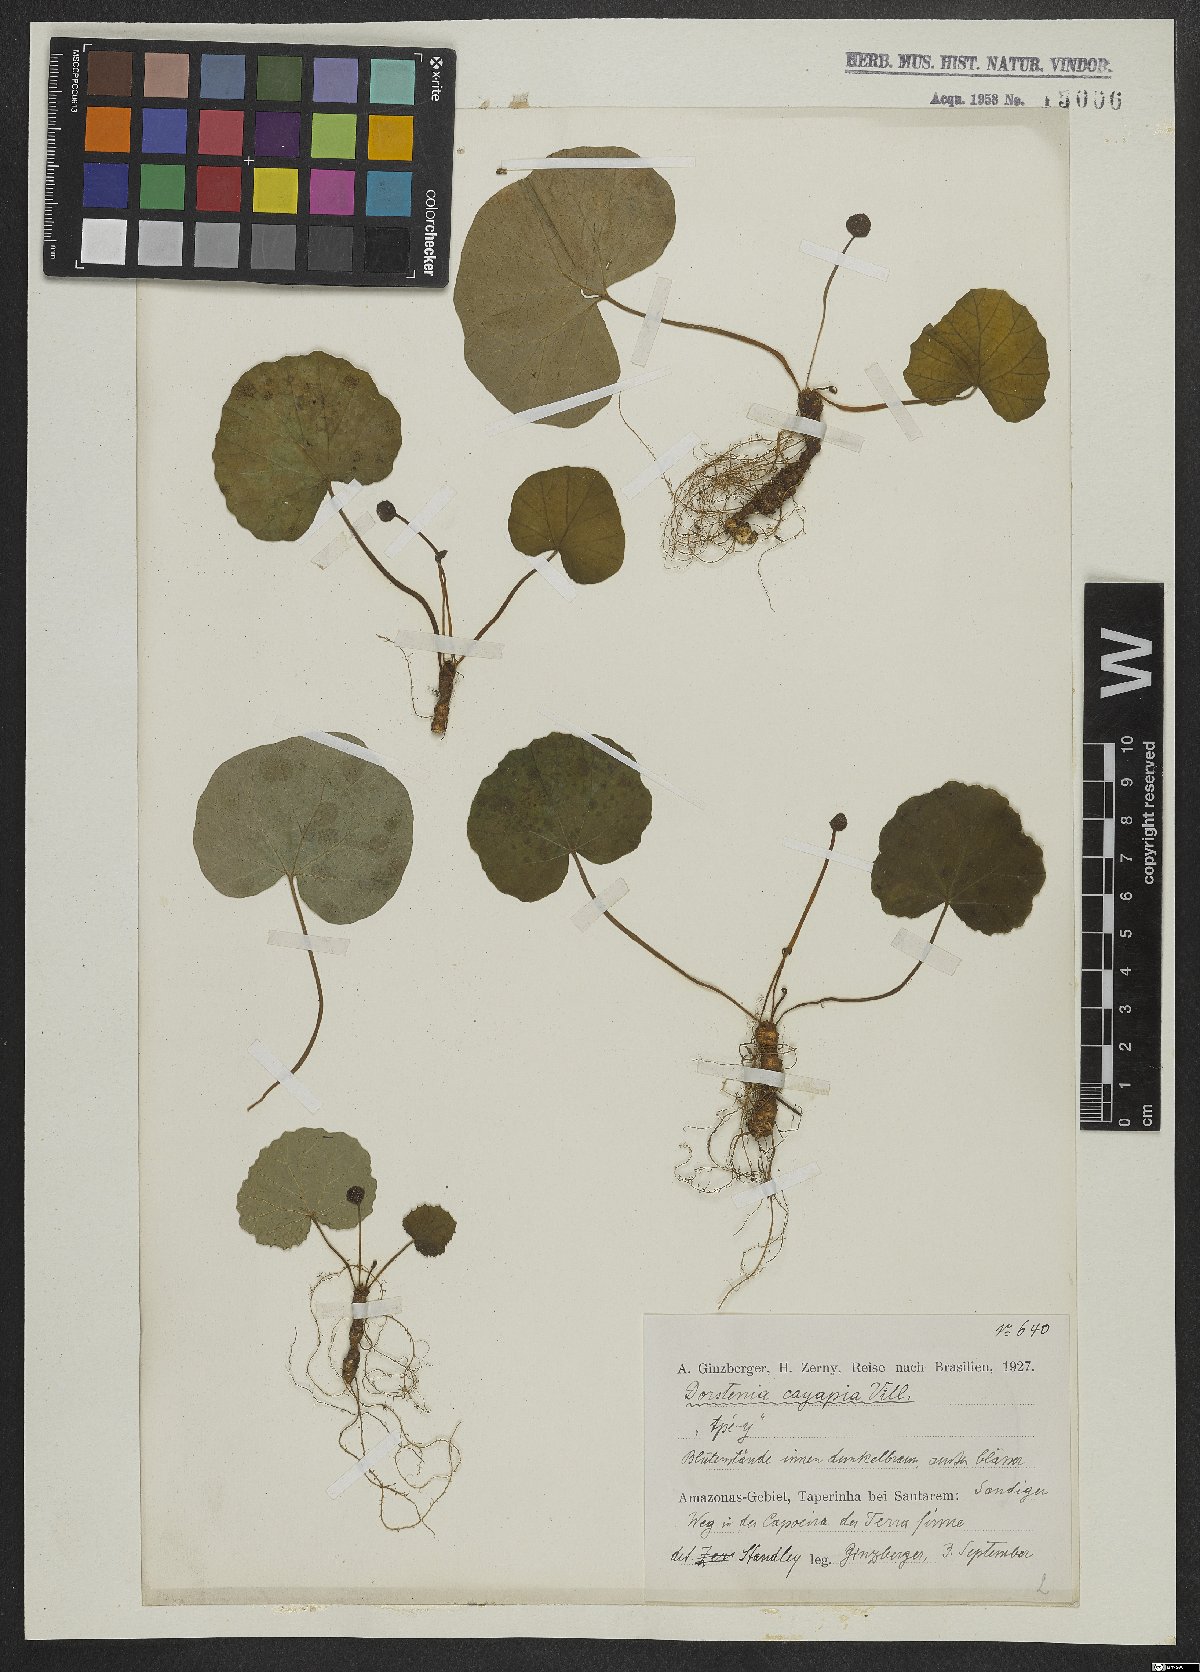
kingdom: Plantae
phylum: Tracheophyta
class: Magnoliopsida
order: Rosales
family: Moraceae
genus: Dorstenia
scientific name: Dorstenia cayapia
